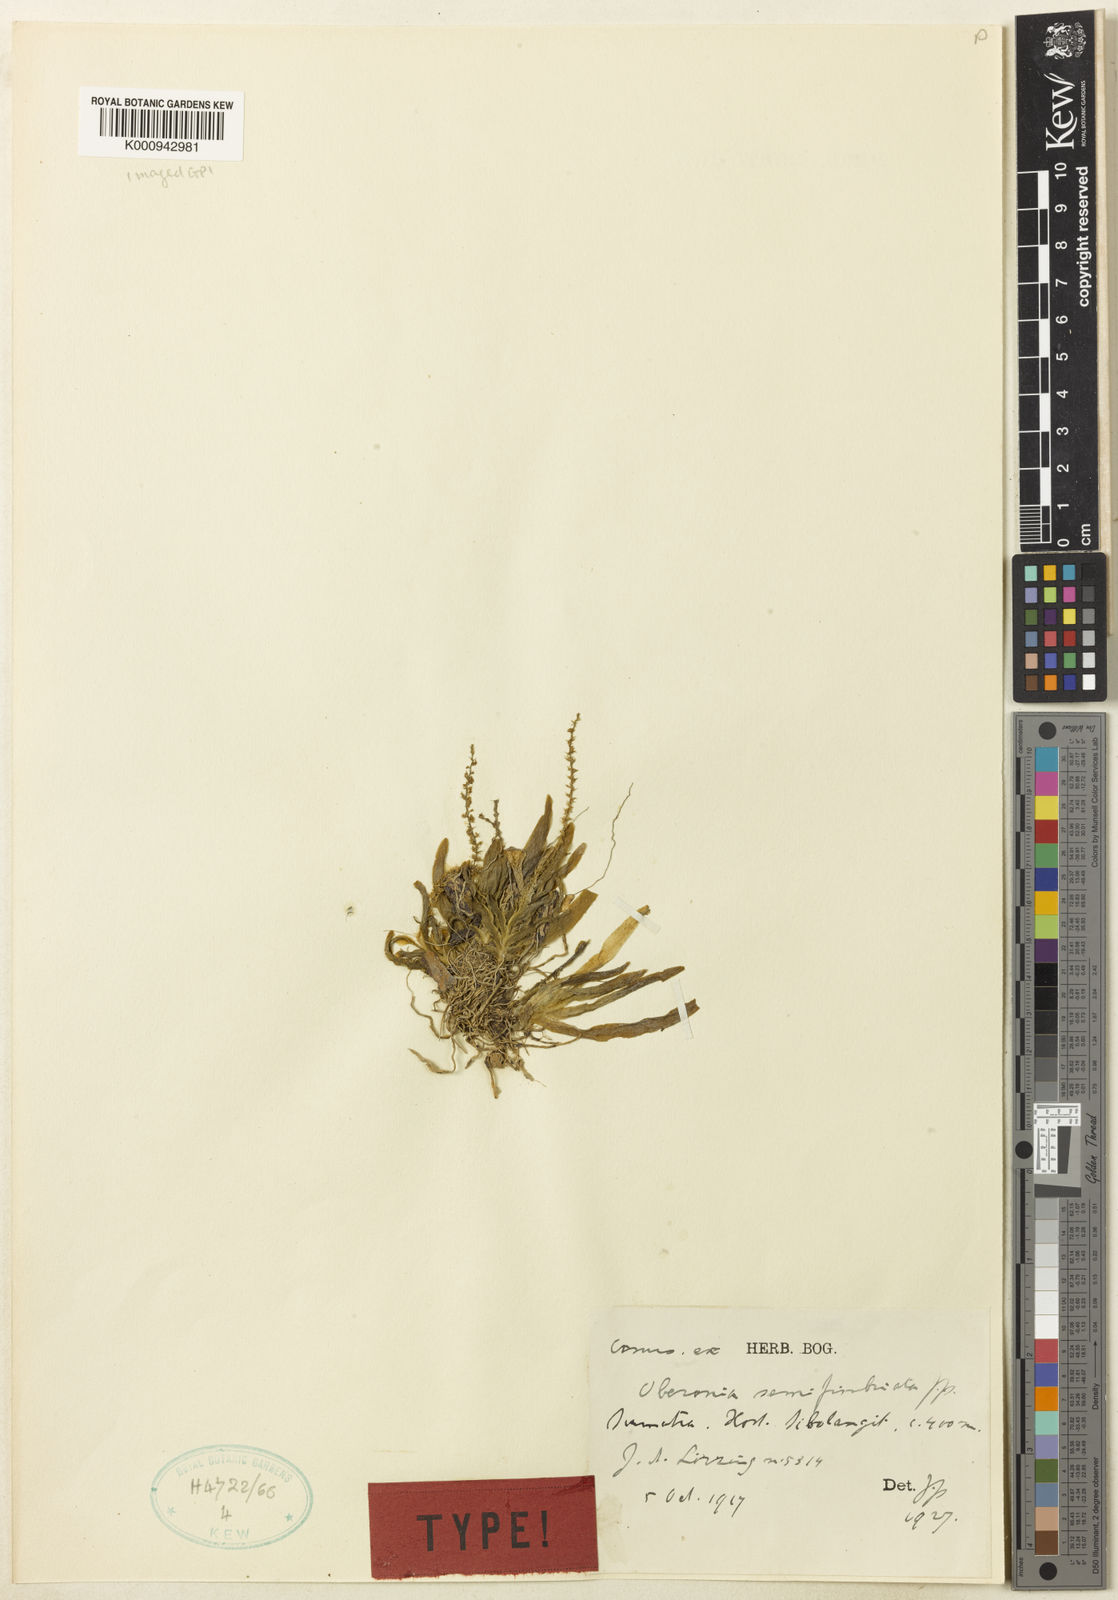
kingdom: Plantae
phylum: Tracheophyta
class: Liliopsida
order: Asparagales
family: Orchidaceae
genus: Oberonia
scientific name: Oberonia semifimbriata
